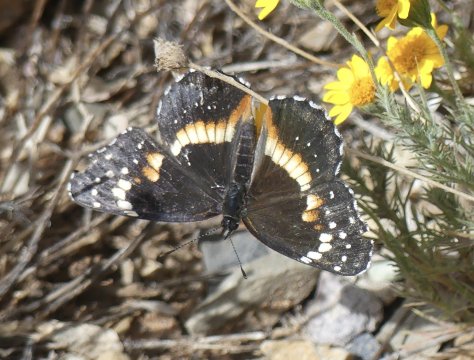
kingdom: Animalia
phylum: Arthropoda
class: Insecta
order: Lepidoptera
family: Nymphalidae
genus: Chlosyne
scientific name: Chlosyne lacinia
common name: Bordered Patch
